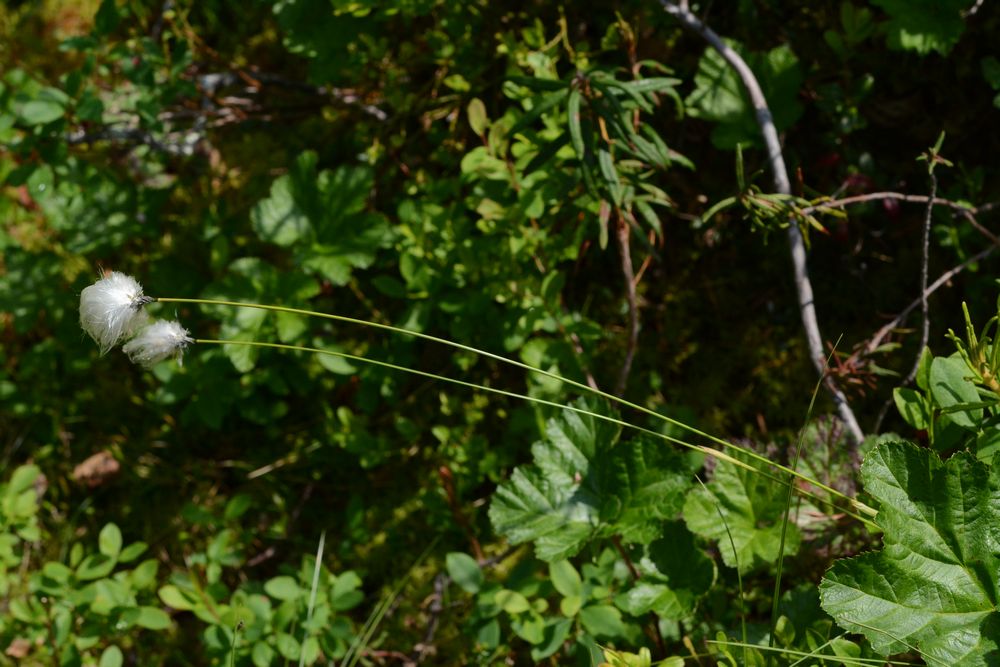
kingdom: Plantae
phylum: Tracheophyta
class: Liliopsida
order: Poales
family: Cyperaceae
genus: Eriophorum
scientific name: Eriophorum vaginatum
